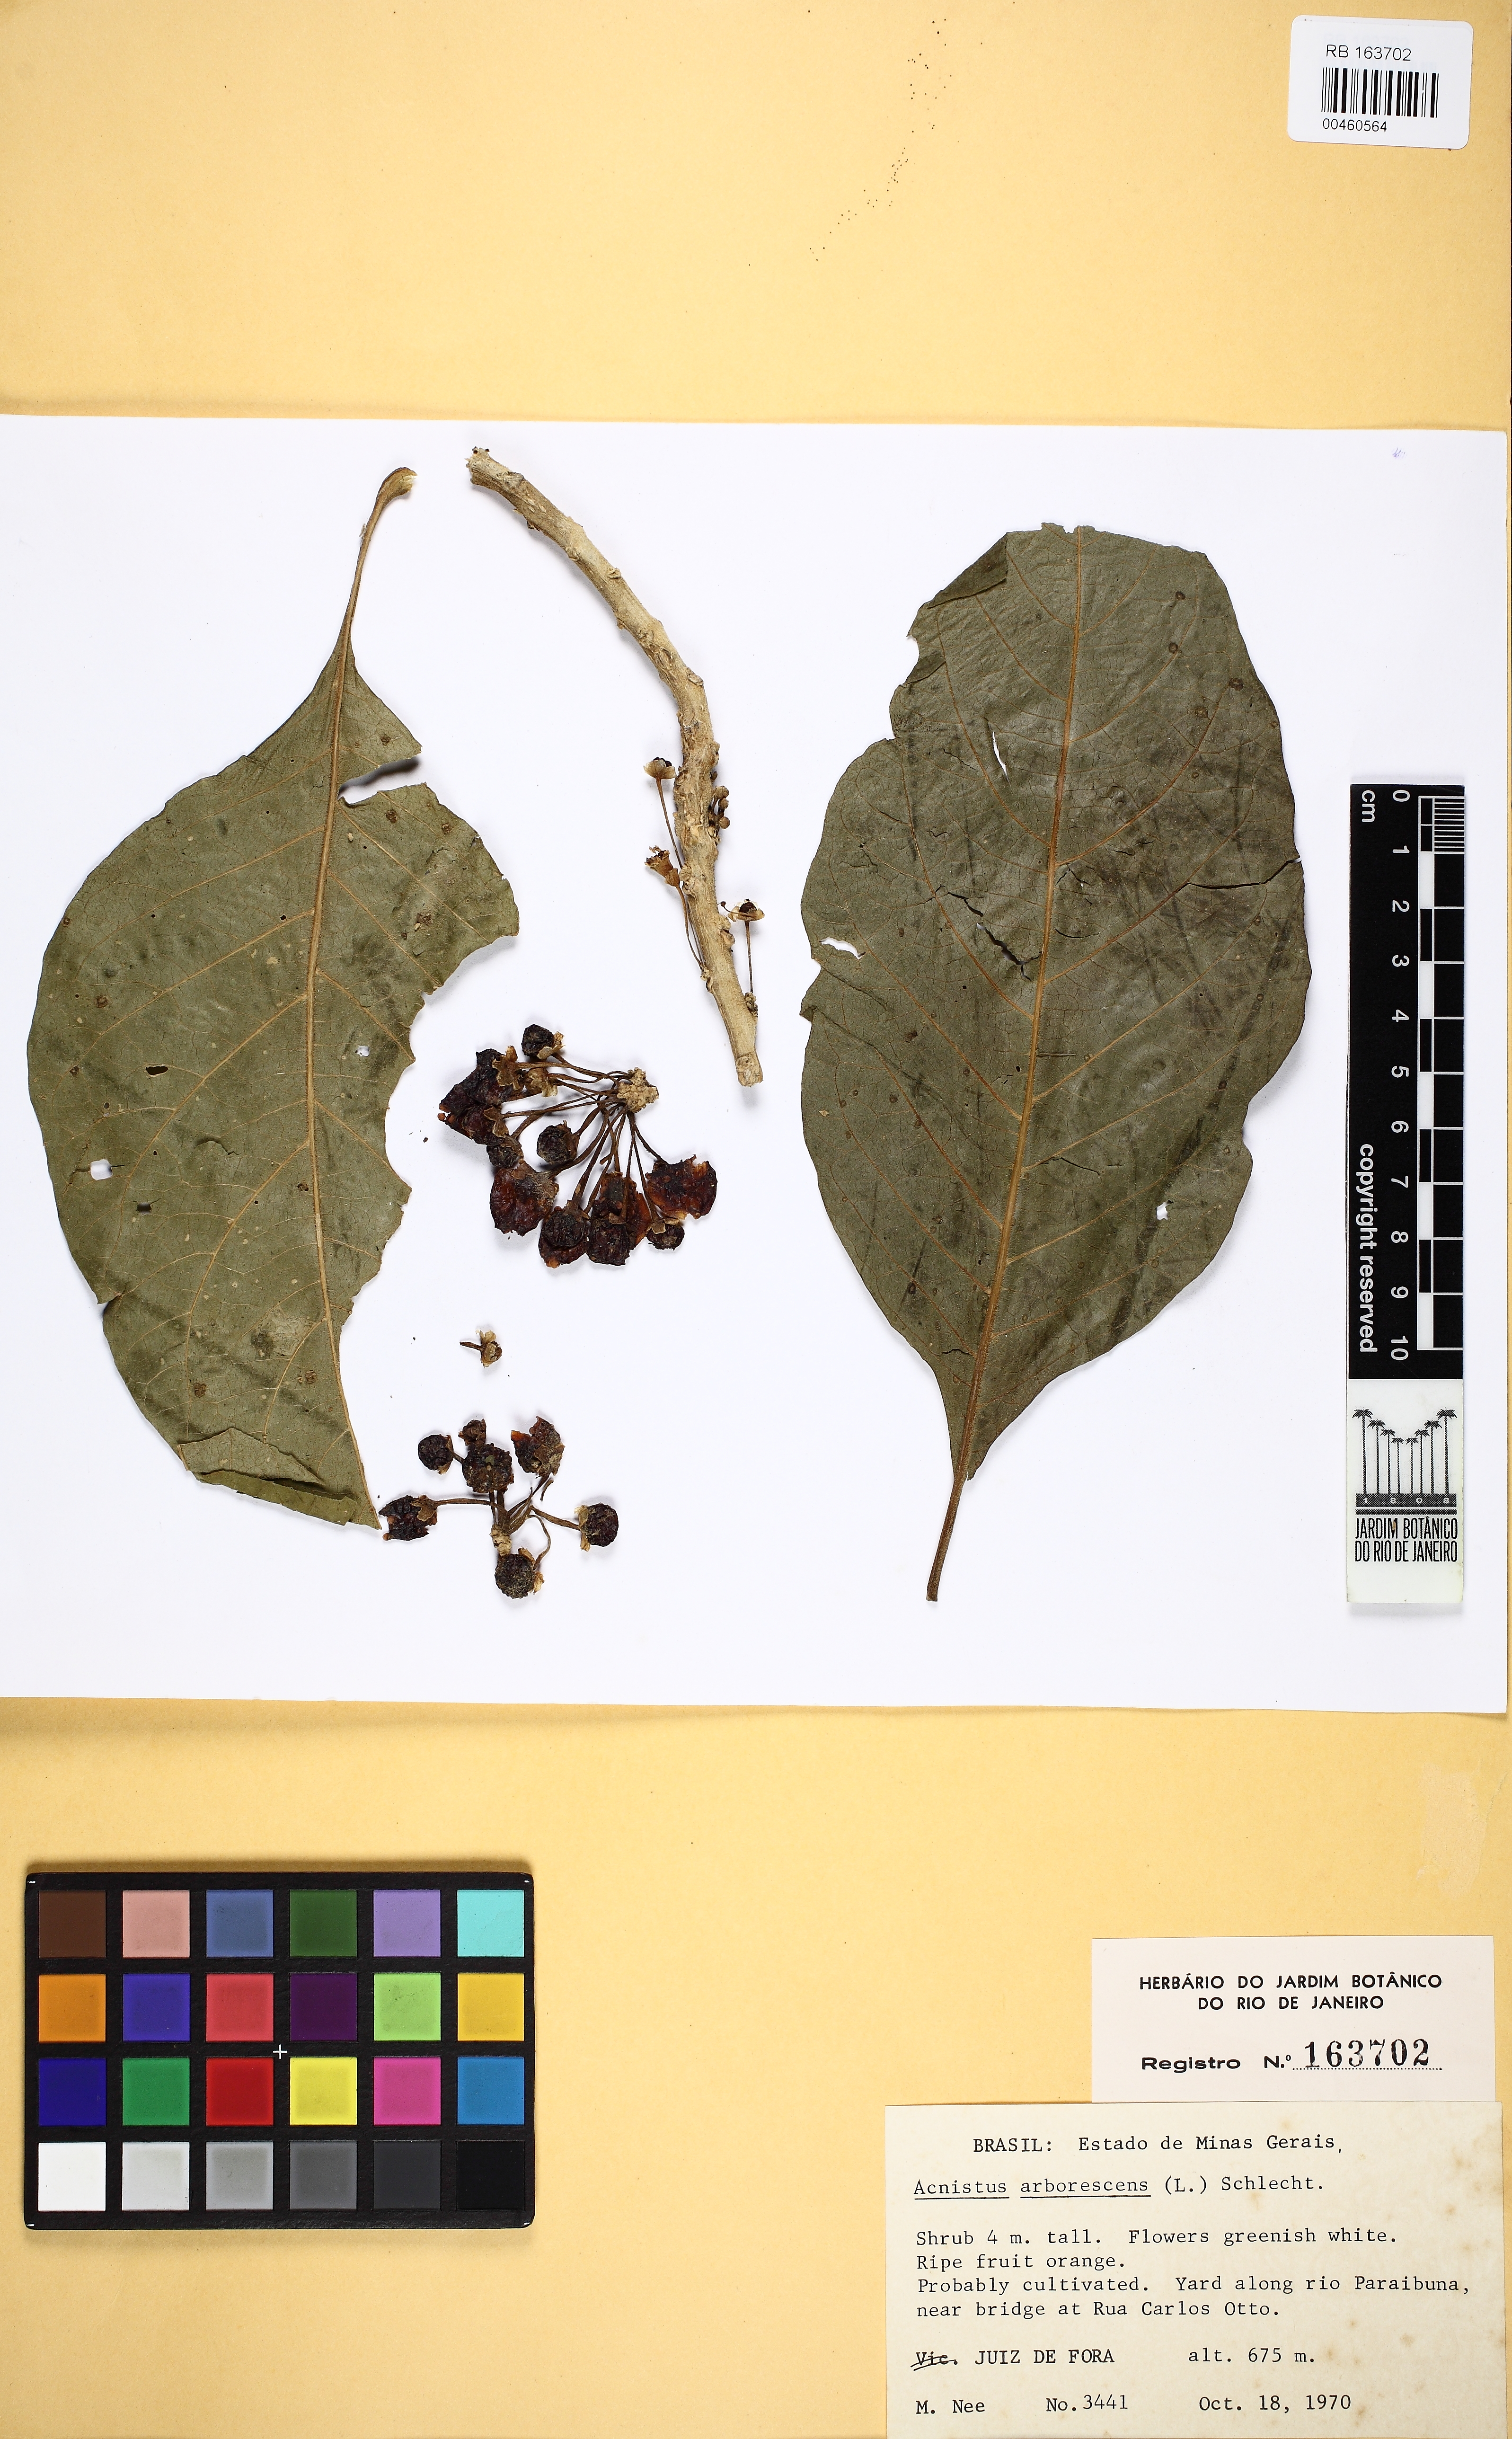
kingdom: Plantae
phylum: Tracheophyta
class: Magnoliopsida
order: Solanales
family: Solanaceae
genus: Iochroma
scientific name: Iochroma arborescens
